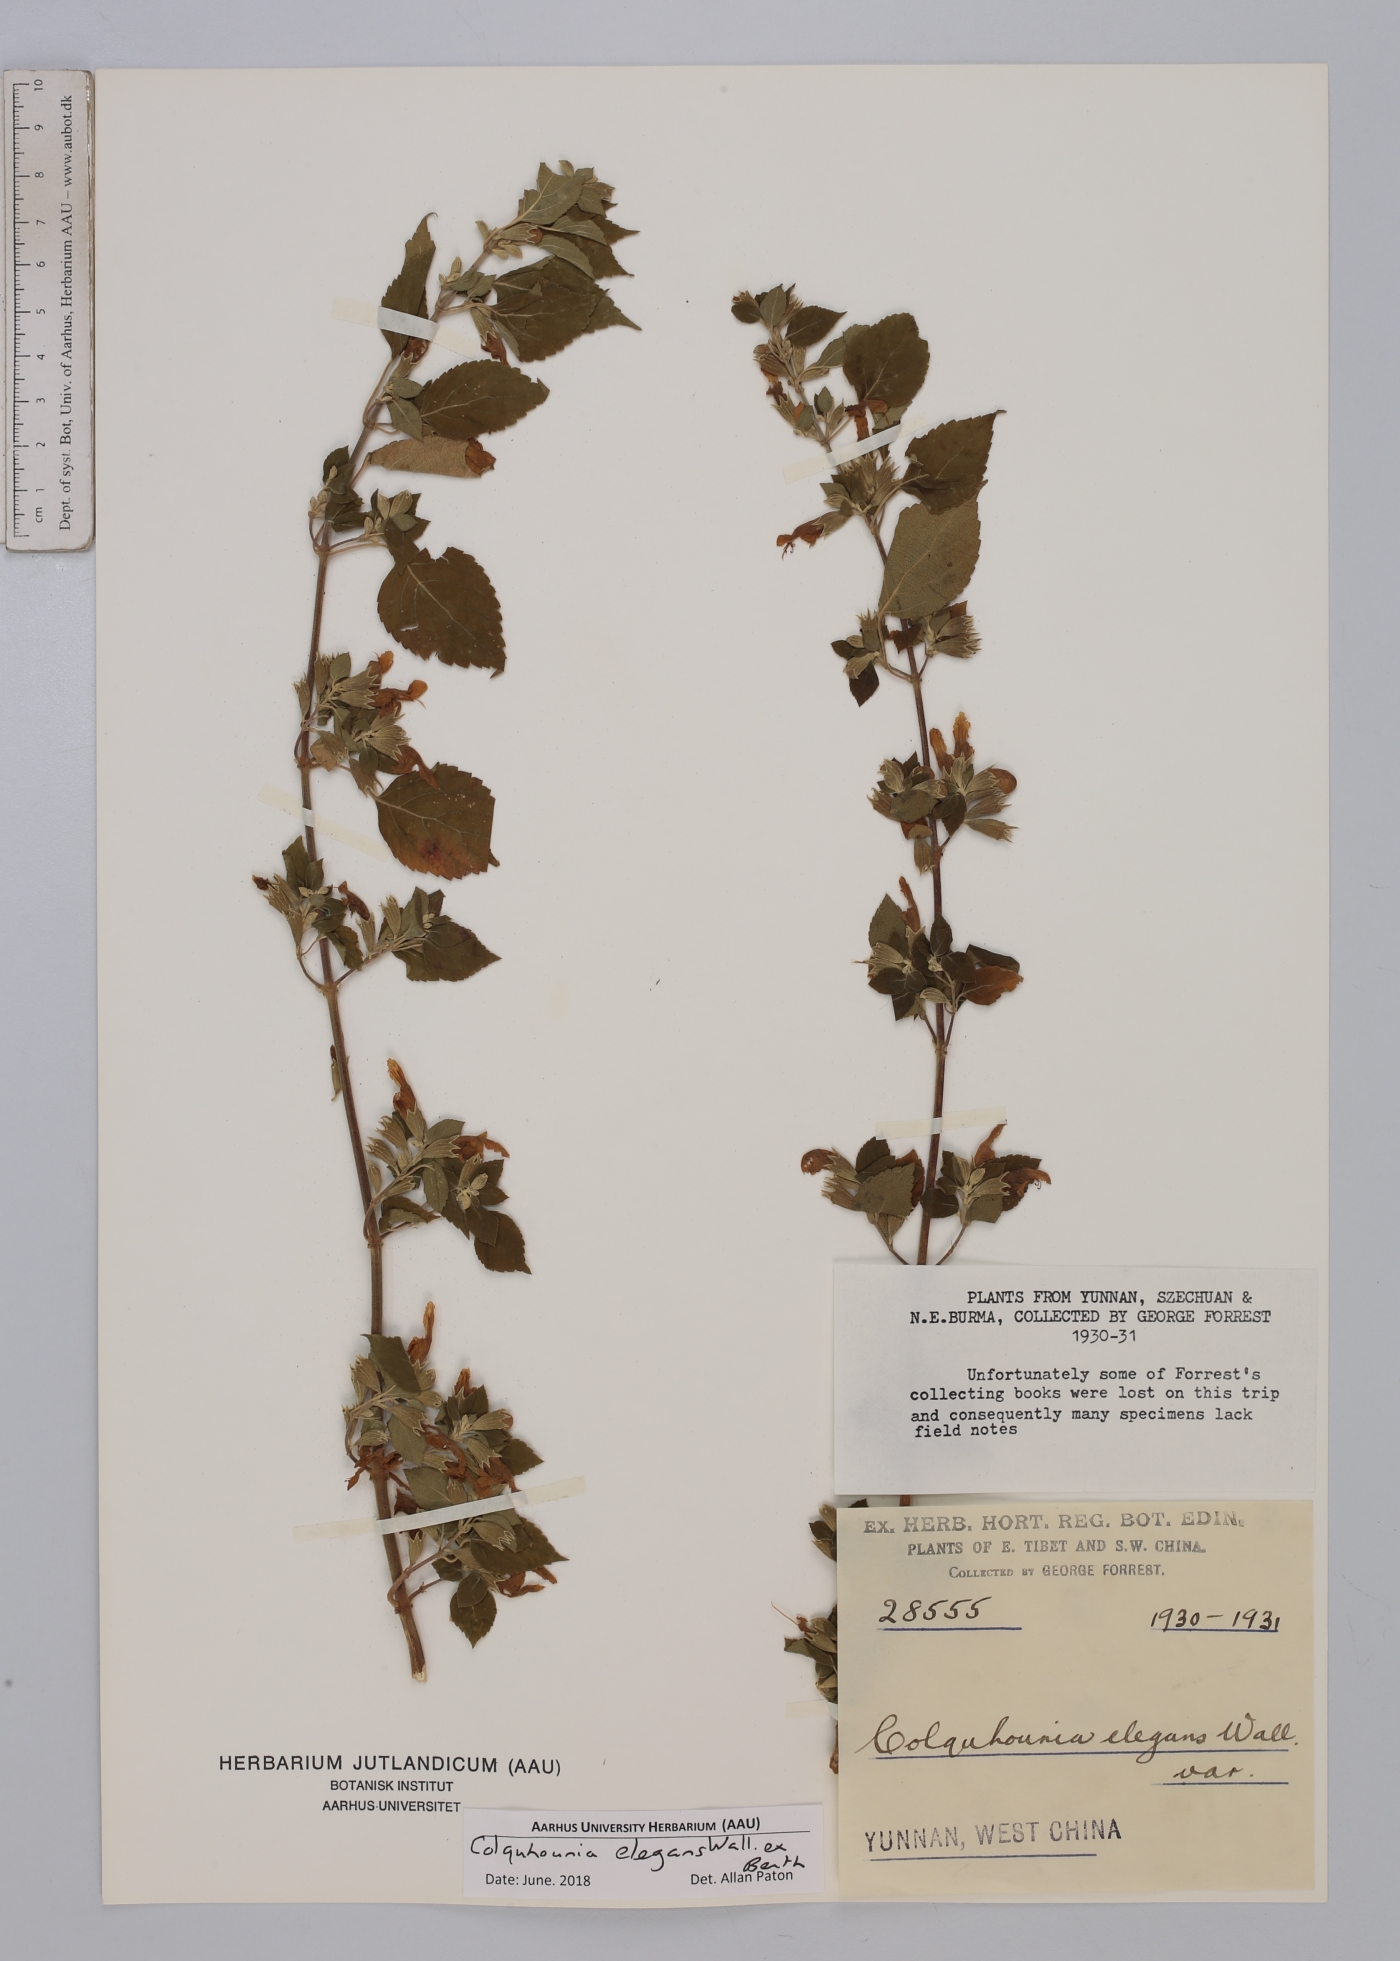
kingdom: Plantae
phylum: Tracheophyta
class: Magnoliopsida
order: Lamiales
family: Lamiaceae
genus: Colquhounia
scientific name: Colquhounia elegans
